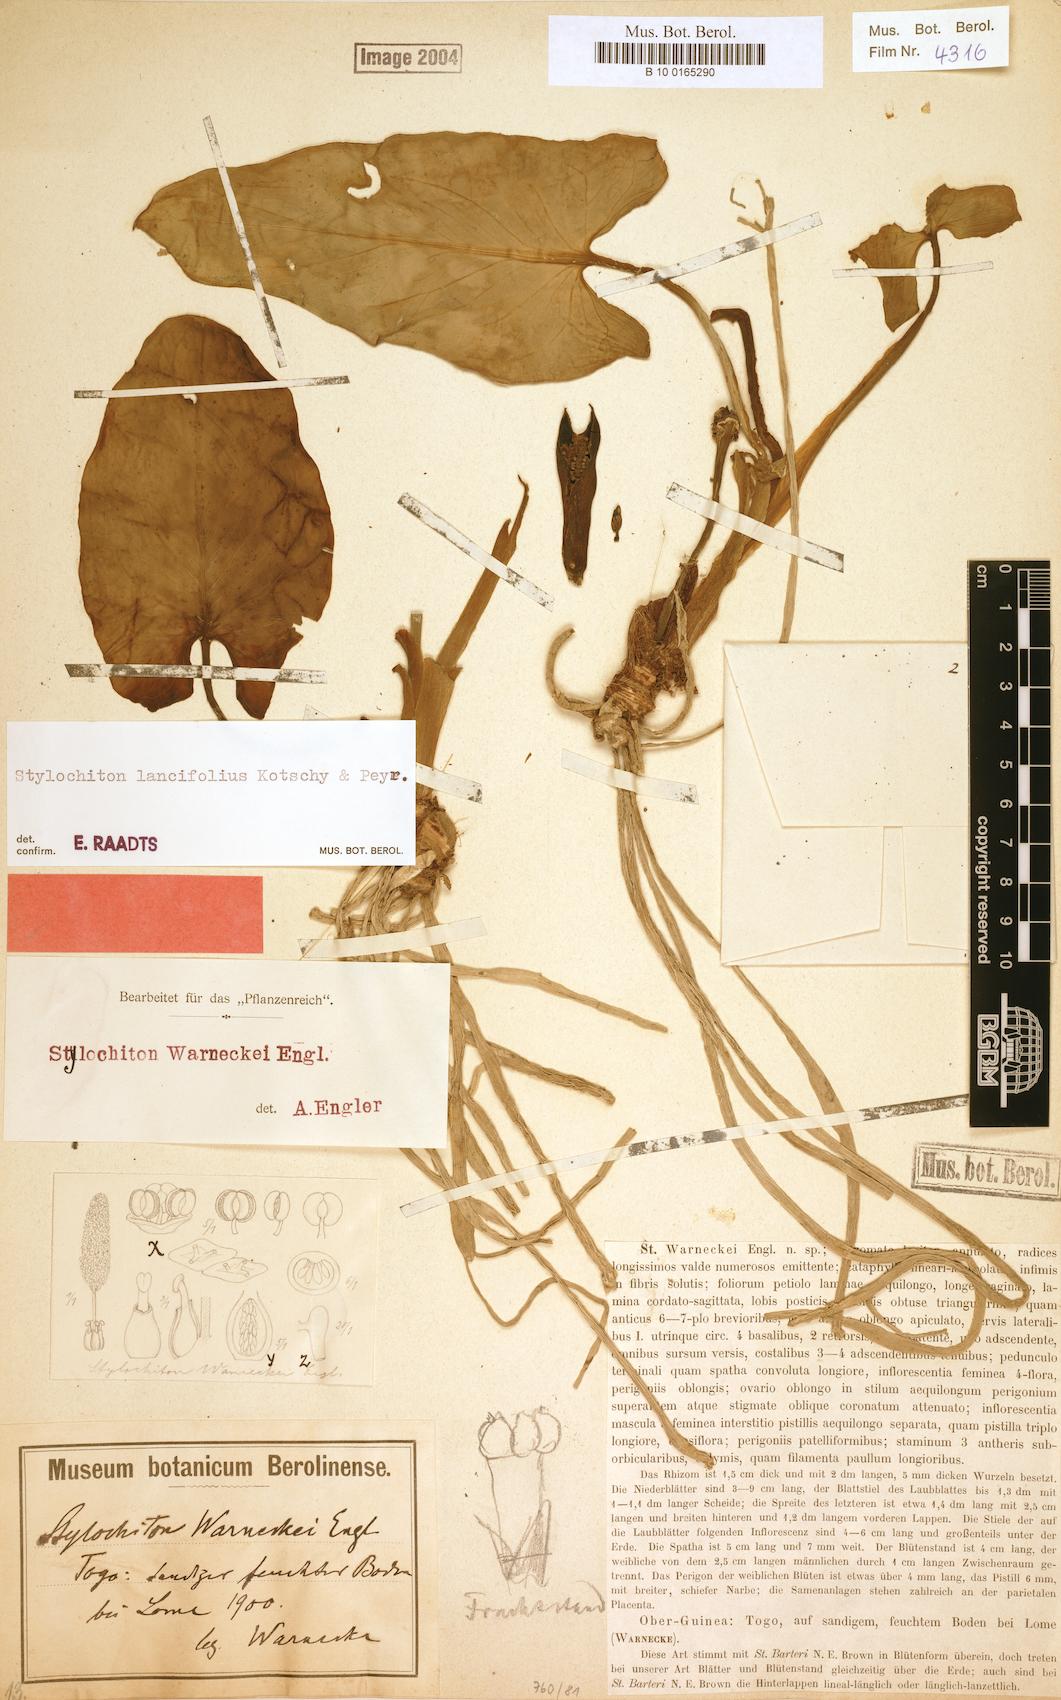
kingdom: Plantae
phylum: Tracheophyta
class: Liliopsida
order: Alismatales
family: Araceae
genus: Stylochiton
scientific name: Stylochiton lancifolius
